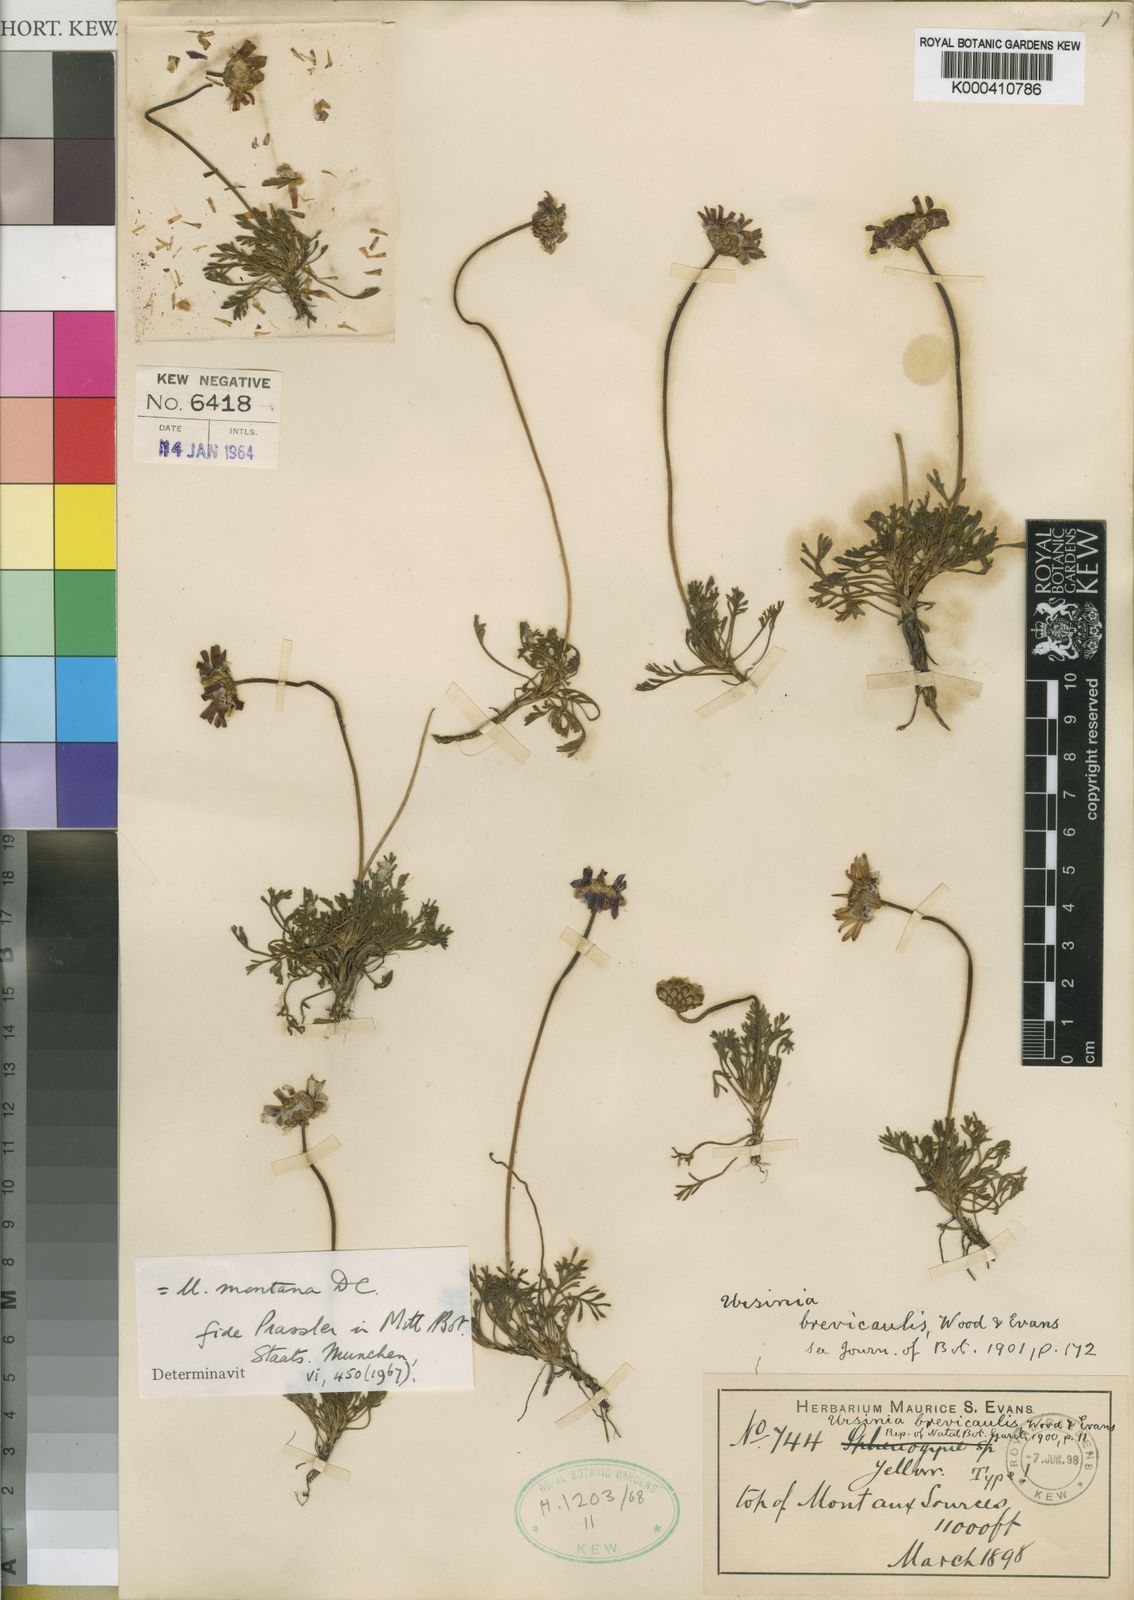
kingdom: Plantae
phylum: Tracheophyta
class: Magnoliopsida
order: Asterales
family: Asteraceae
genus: Ursinia
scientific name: Ursinia montana
